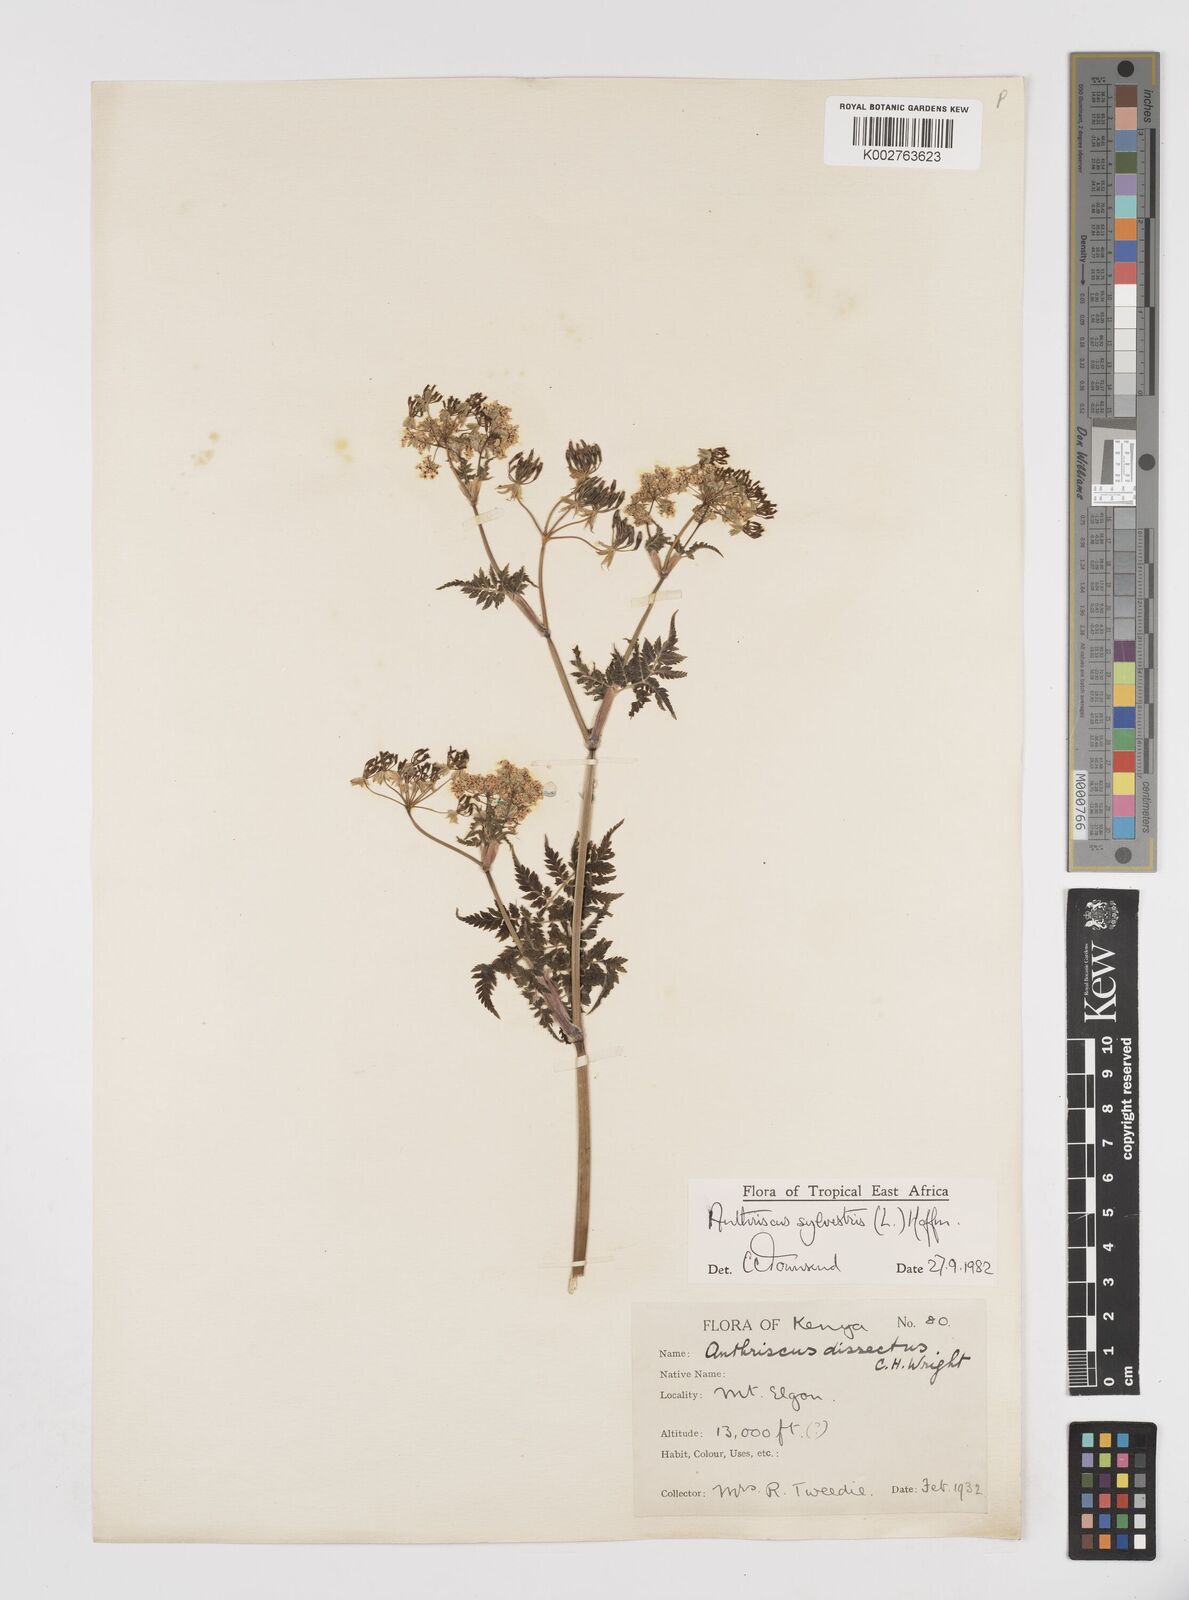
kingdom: Plantae
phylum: Tracheophyta
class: Magnoliopsida
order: Apiales
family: Apiaceae
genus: Anthriscus
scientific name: Anthriscus sylvestris
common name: Cow parsley
